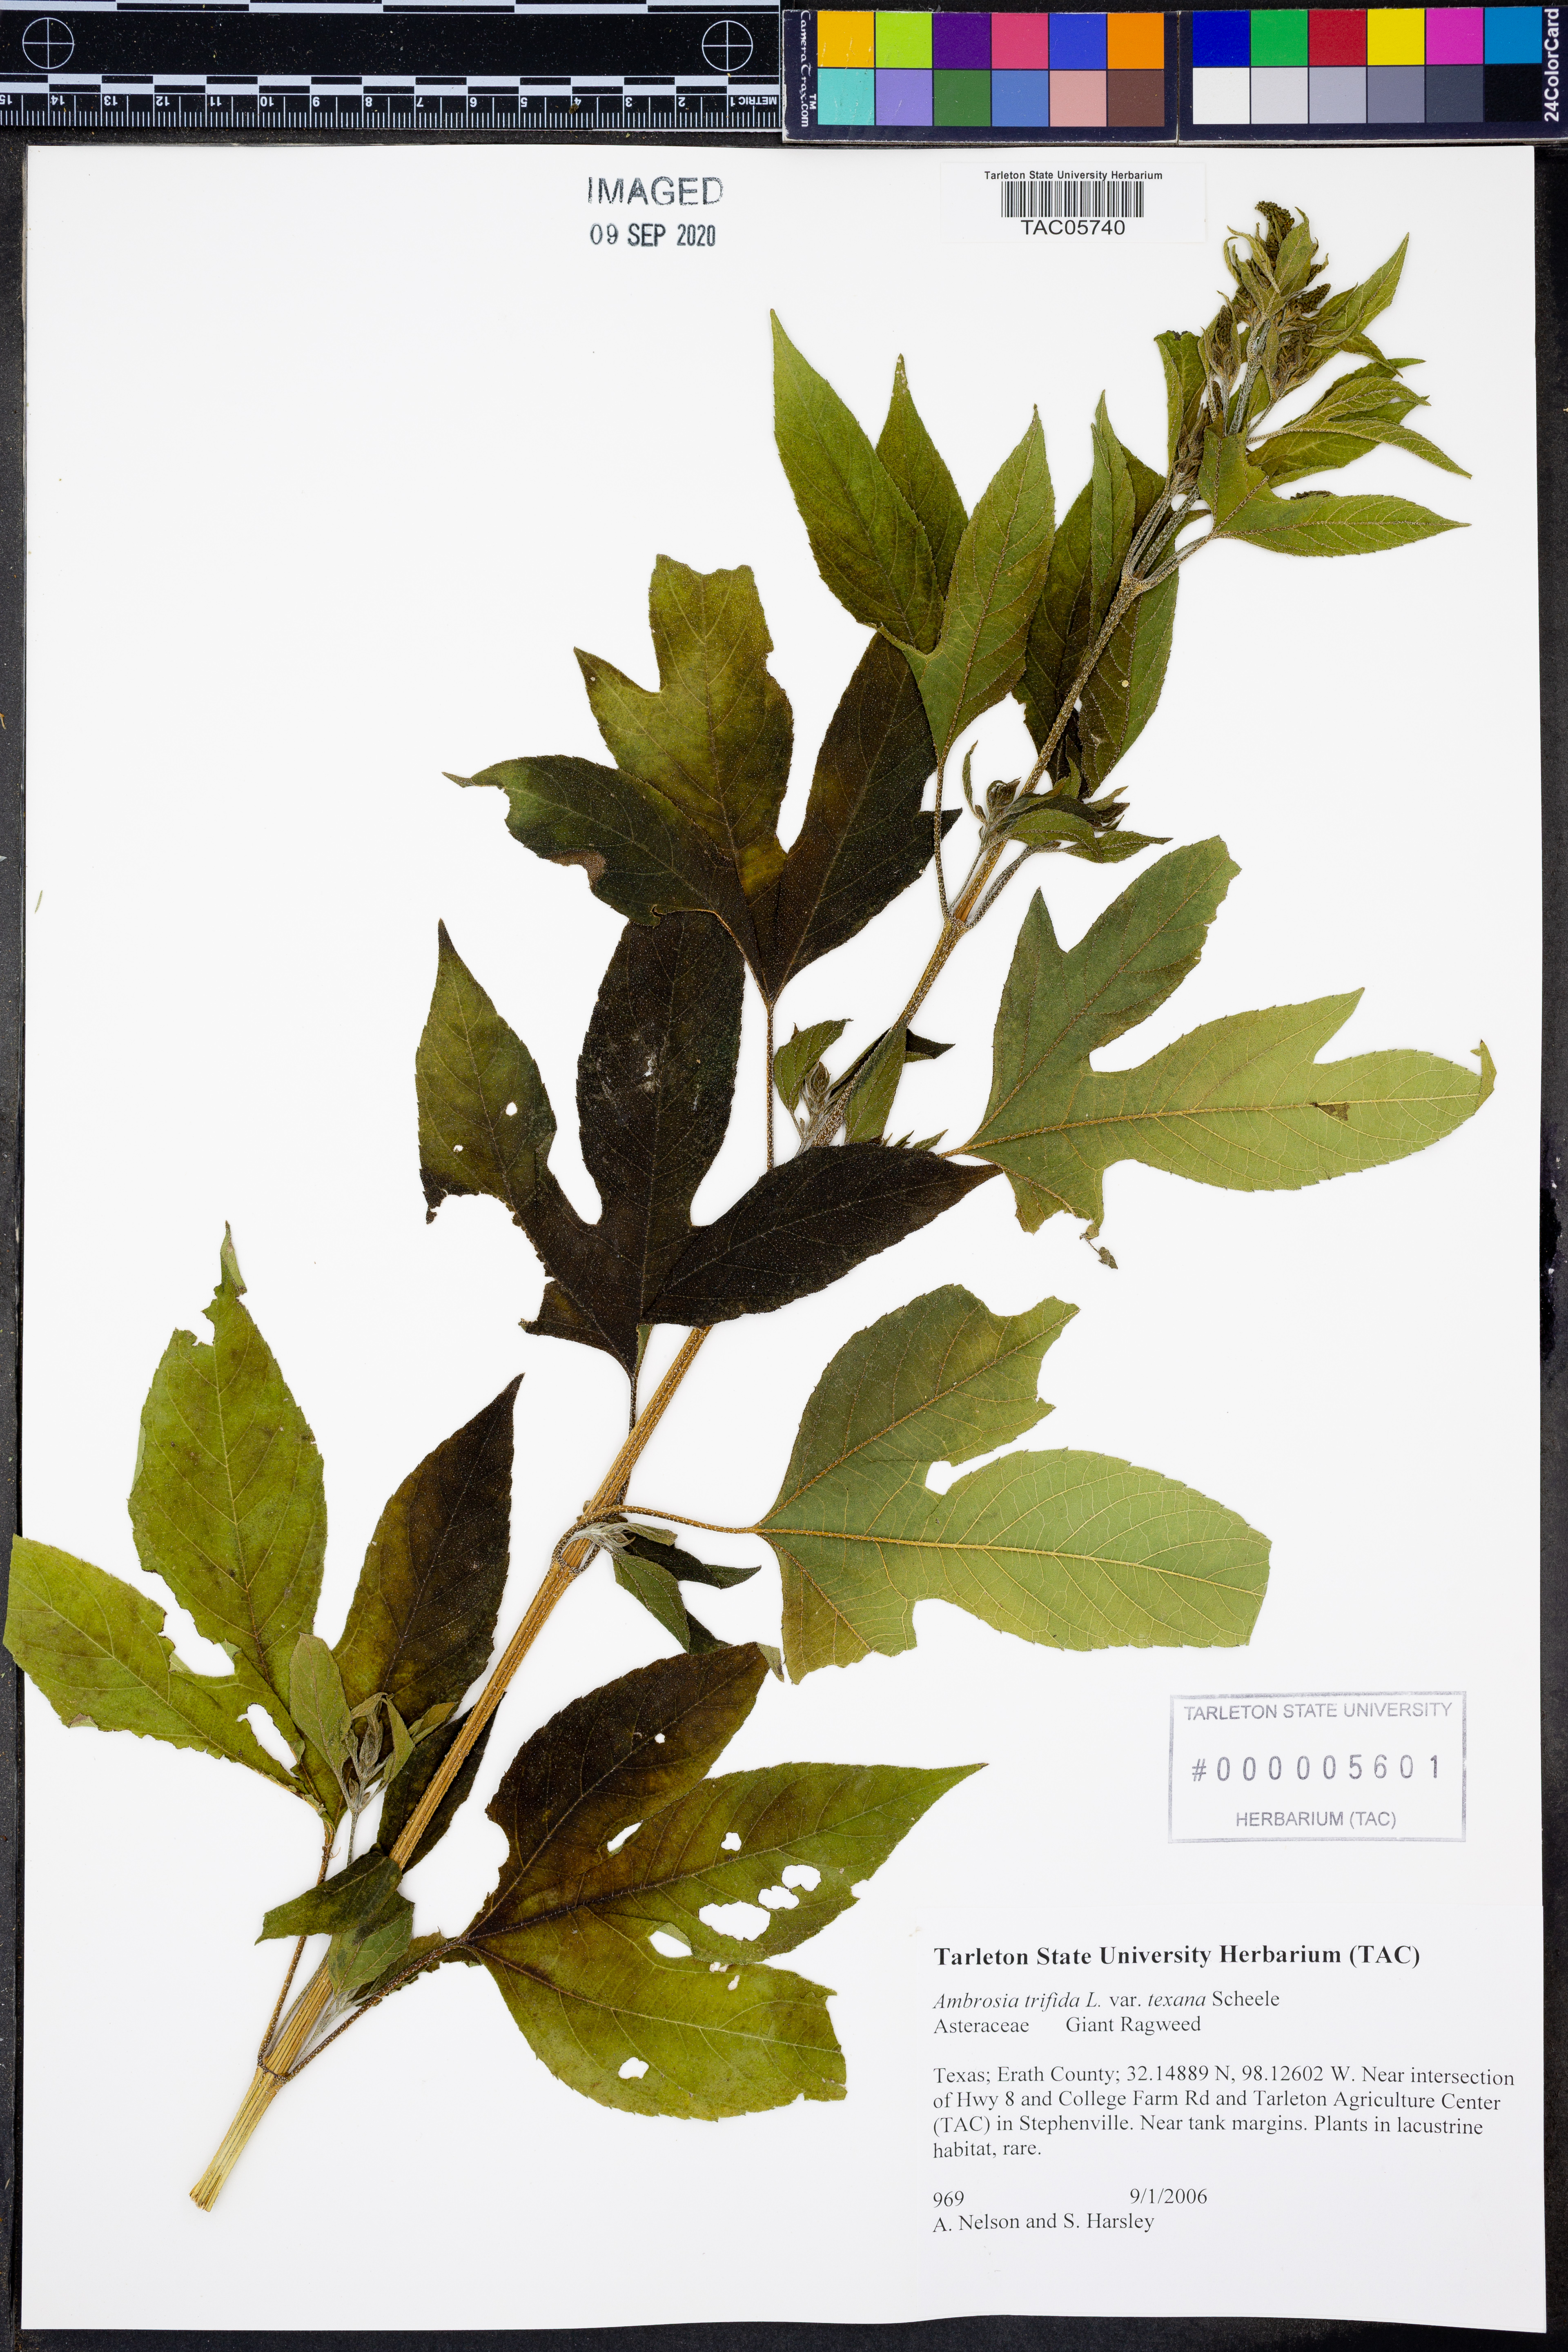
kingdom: Plantae
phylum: Tracheophyta
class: Magnoliopsida
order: Asterales
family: Asteraceae
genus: Ambrosia
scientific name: Ambrosia trifida
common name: Giant ragweed
